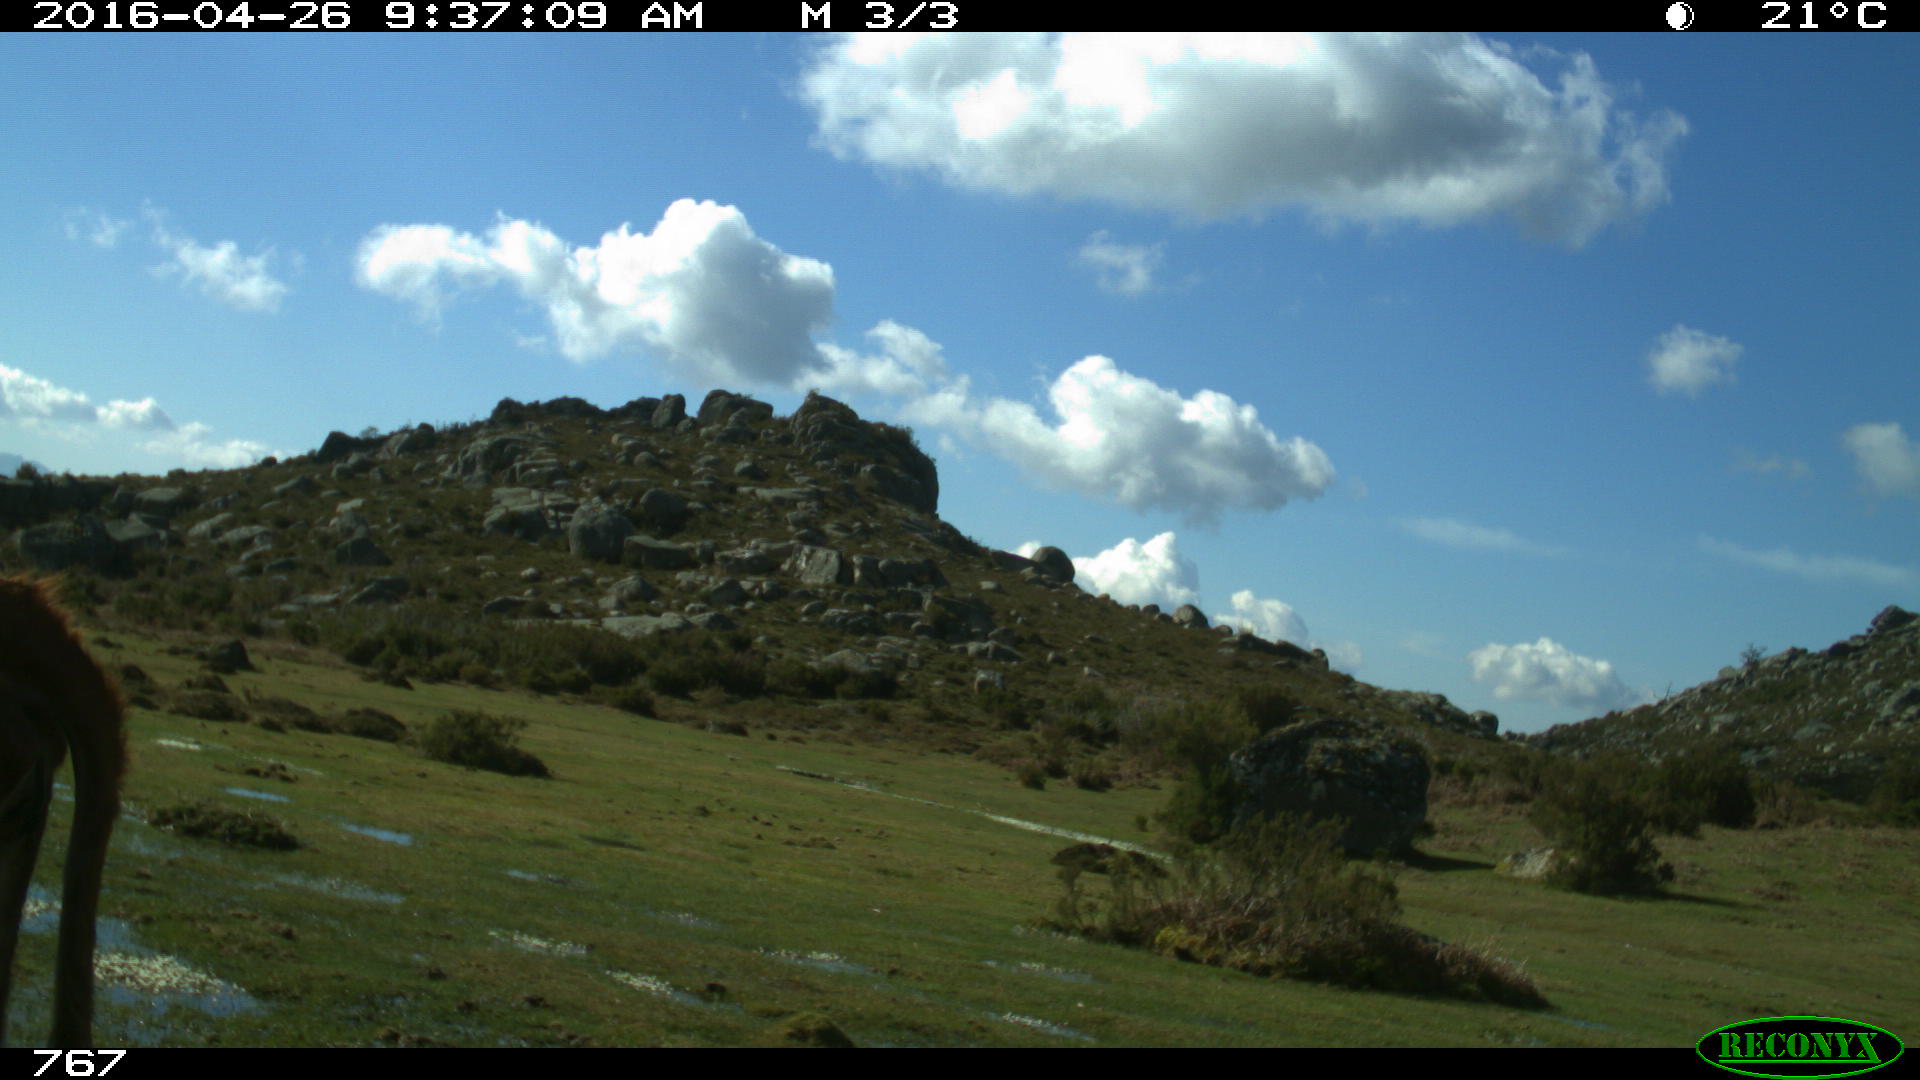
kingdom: Animalia
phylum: Chordata
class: Mammalia
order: Artiodactyla
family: Bovidae
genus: Bos
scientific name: Bos taurus
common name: Domesticated cattle
